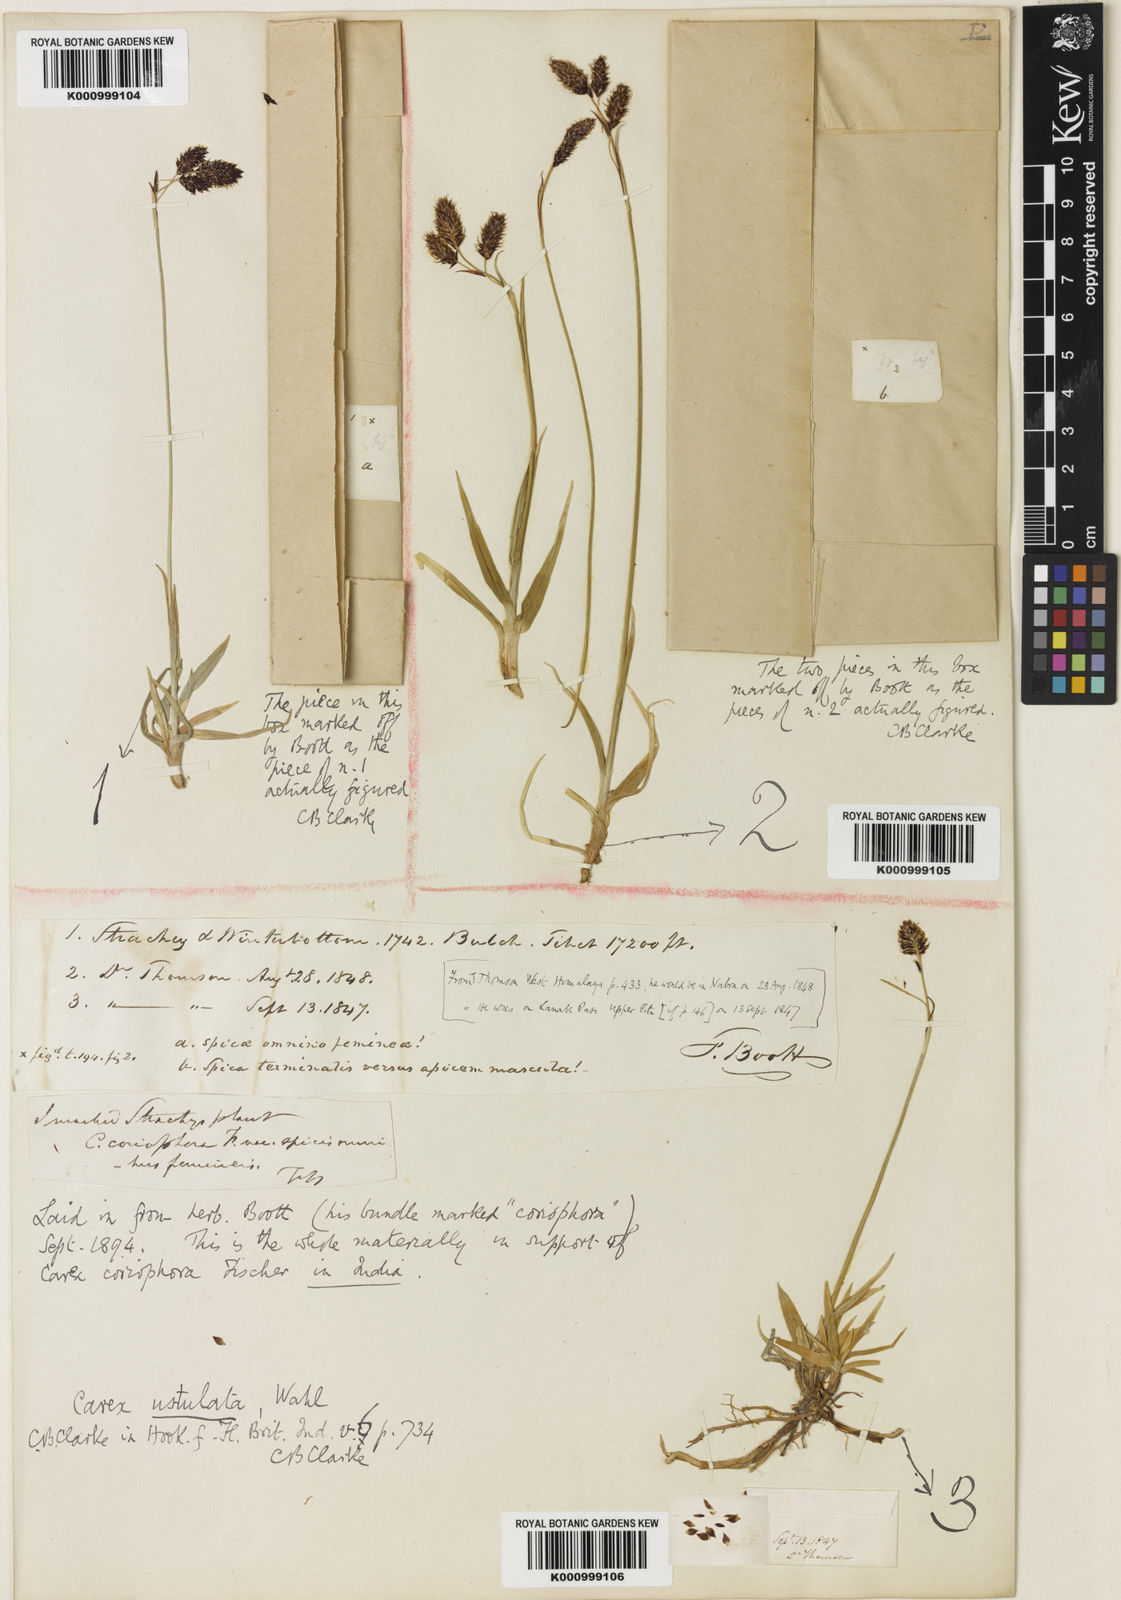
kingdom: Plantae
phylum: Tracheophyta
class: Liliopsida
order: Poales
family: Cyperaceae
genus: Carex
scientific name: Carex hypsobates
